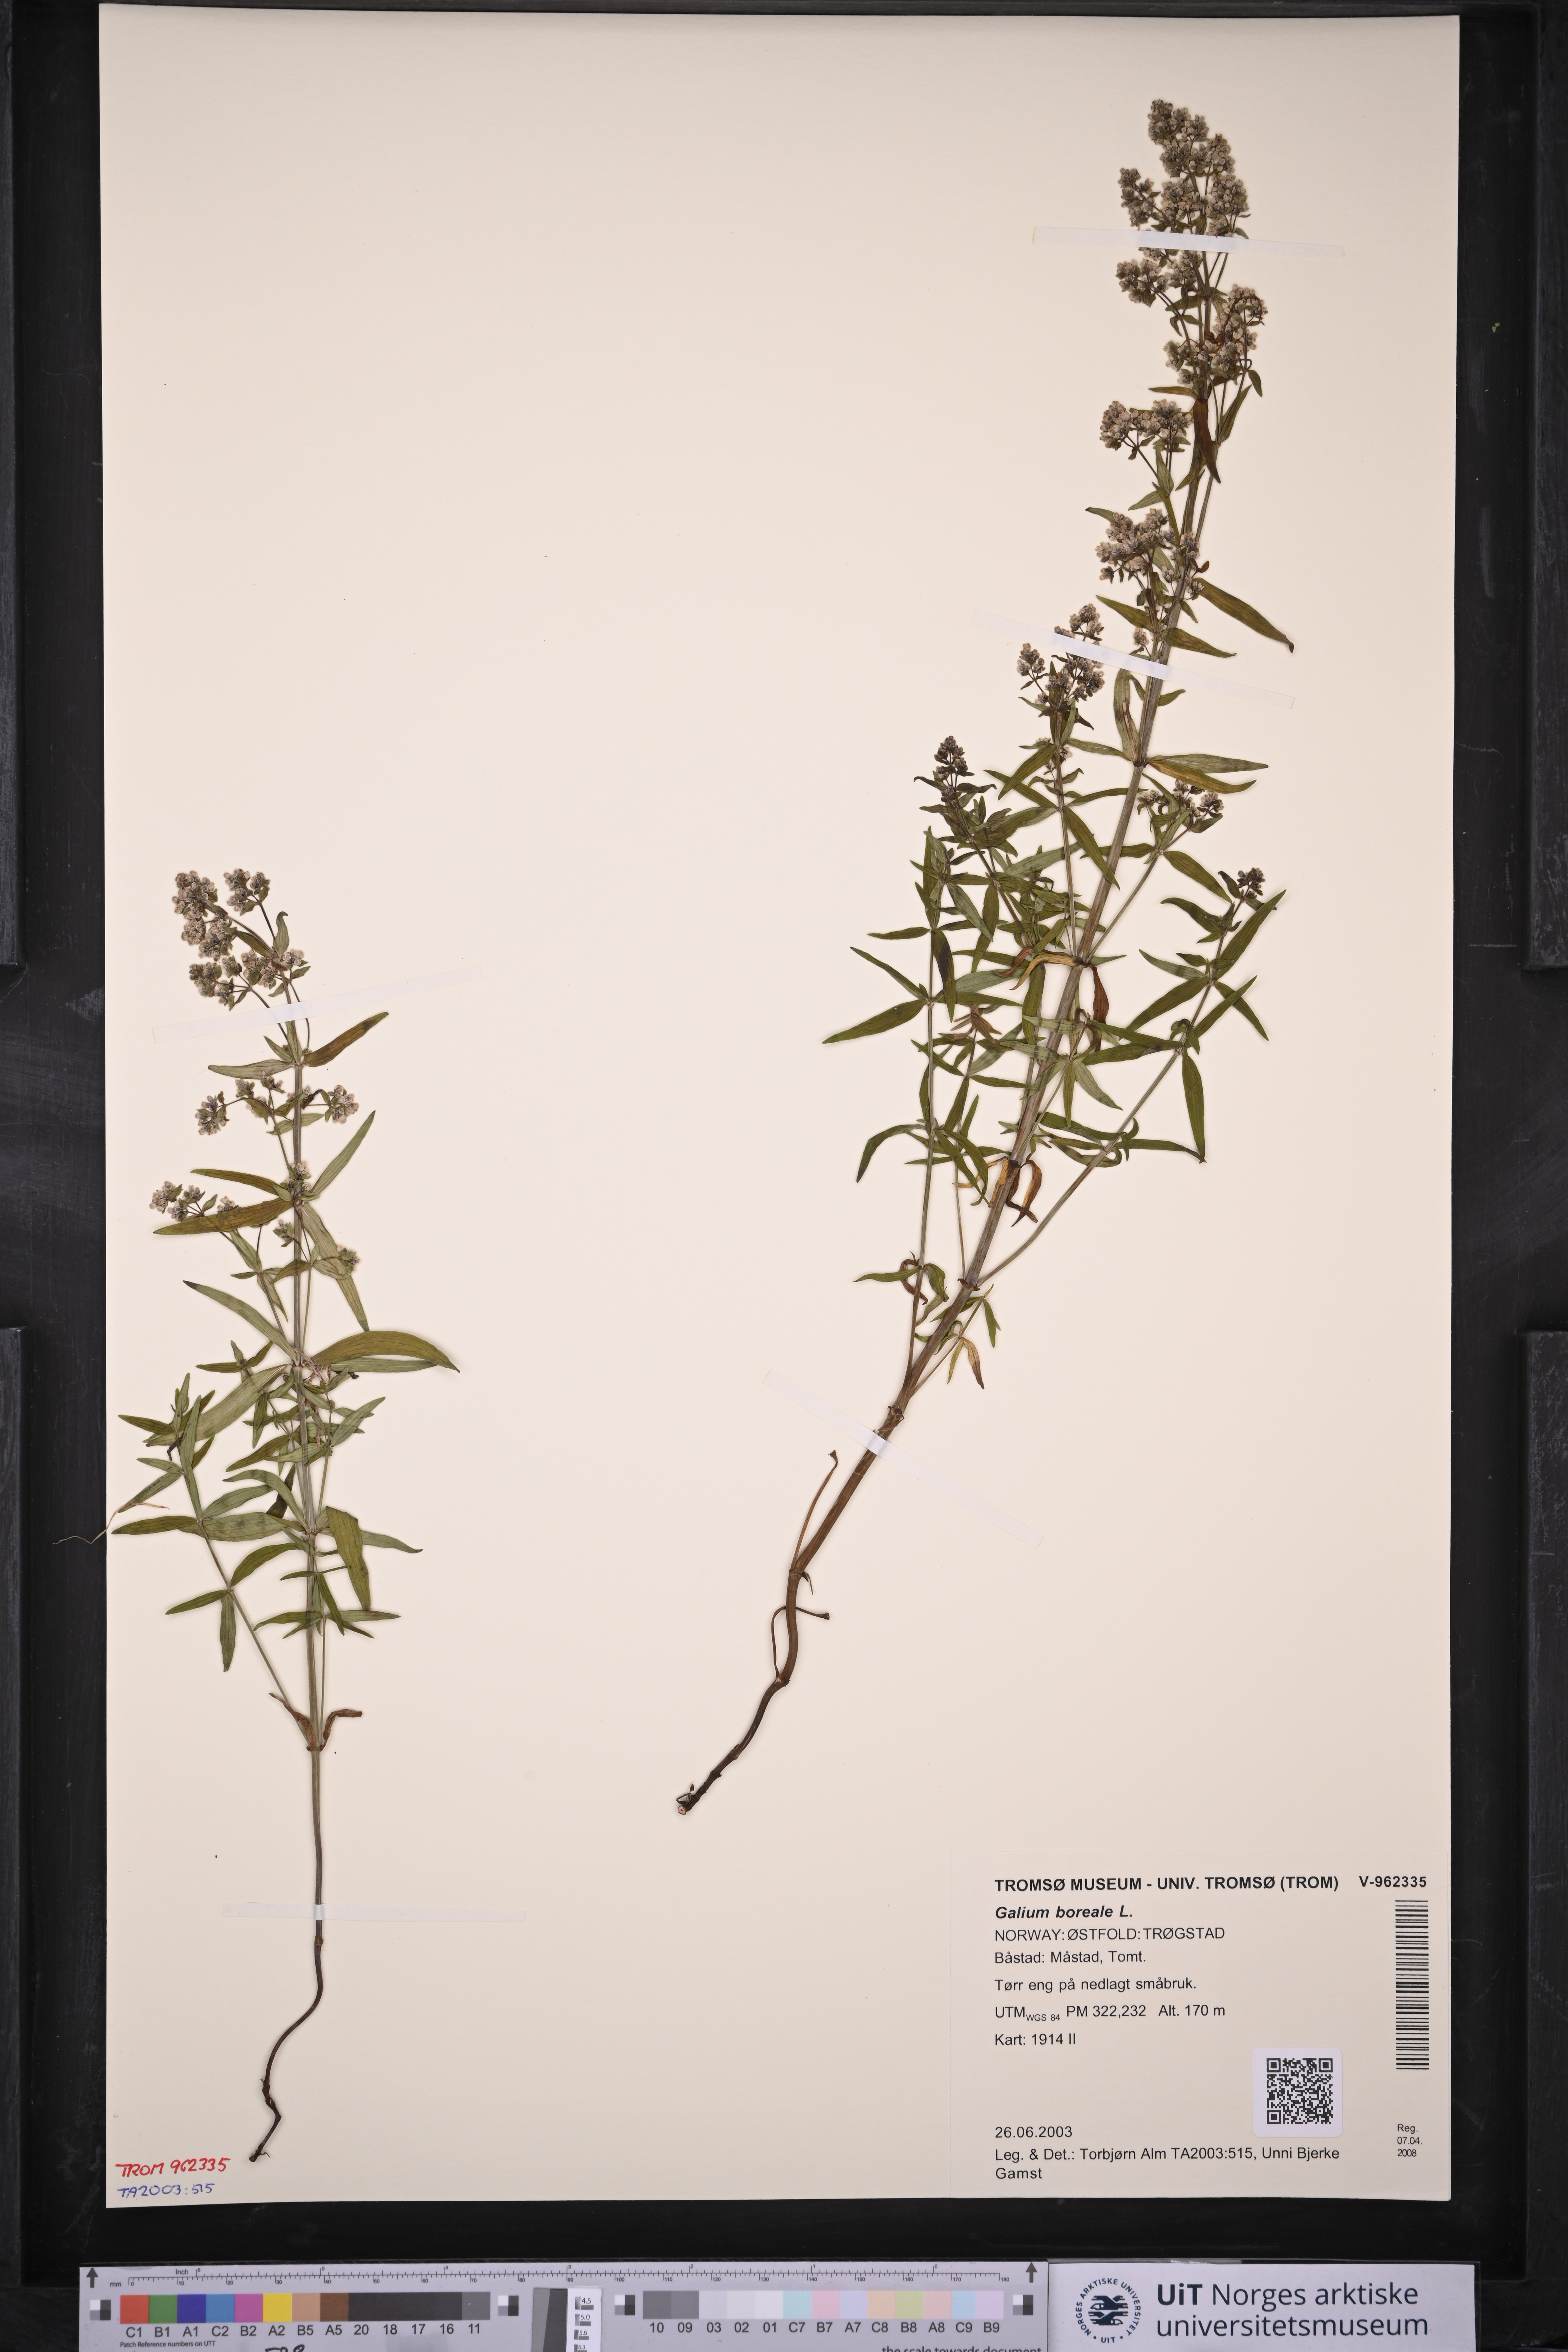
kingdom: Plantae
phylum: Tracheophyta
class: Magnoliopsida
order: Gentianales
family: Rubiaceae
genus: Galium
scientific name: Galium boreale
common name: Northern bedstraw
